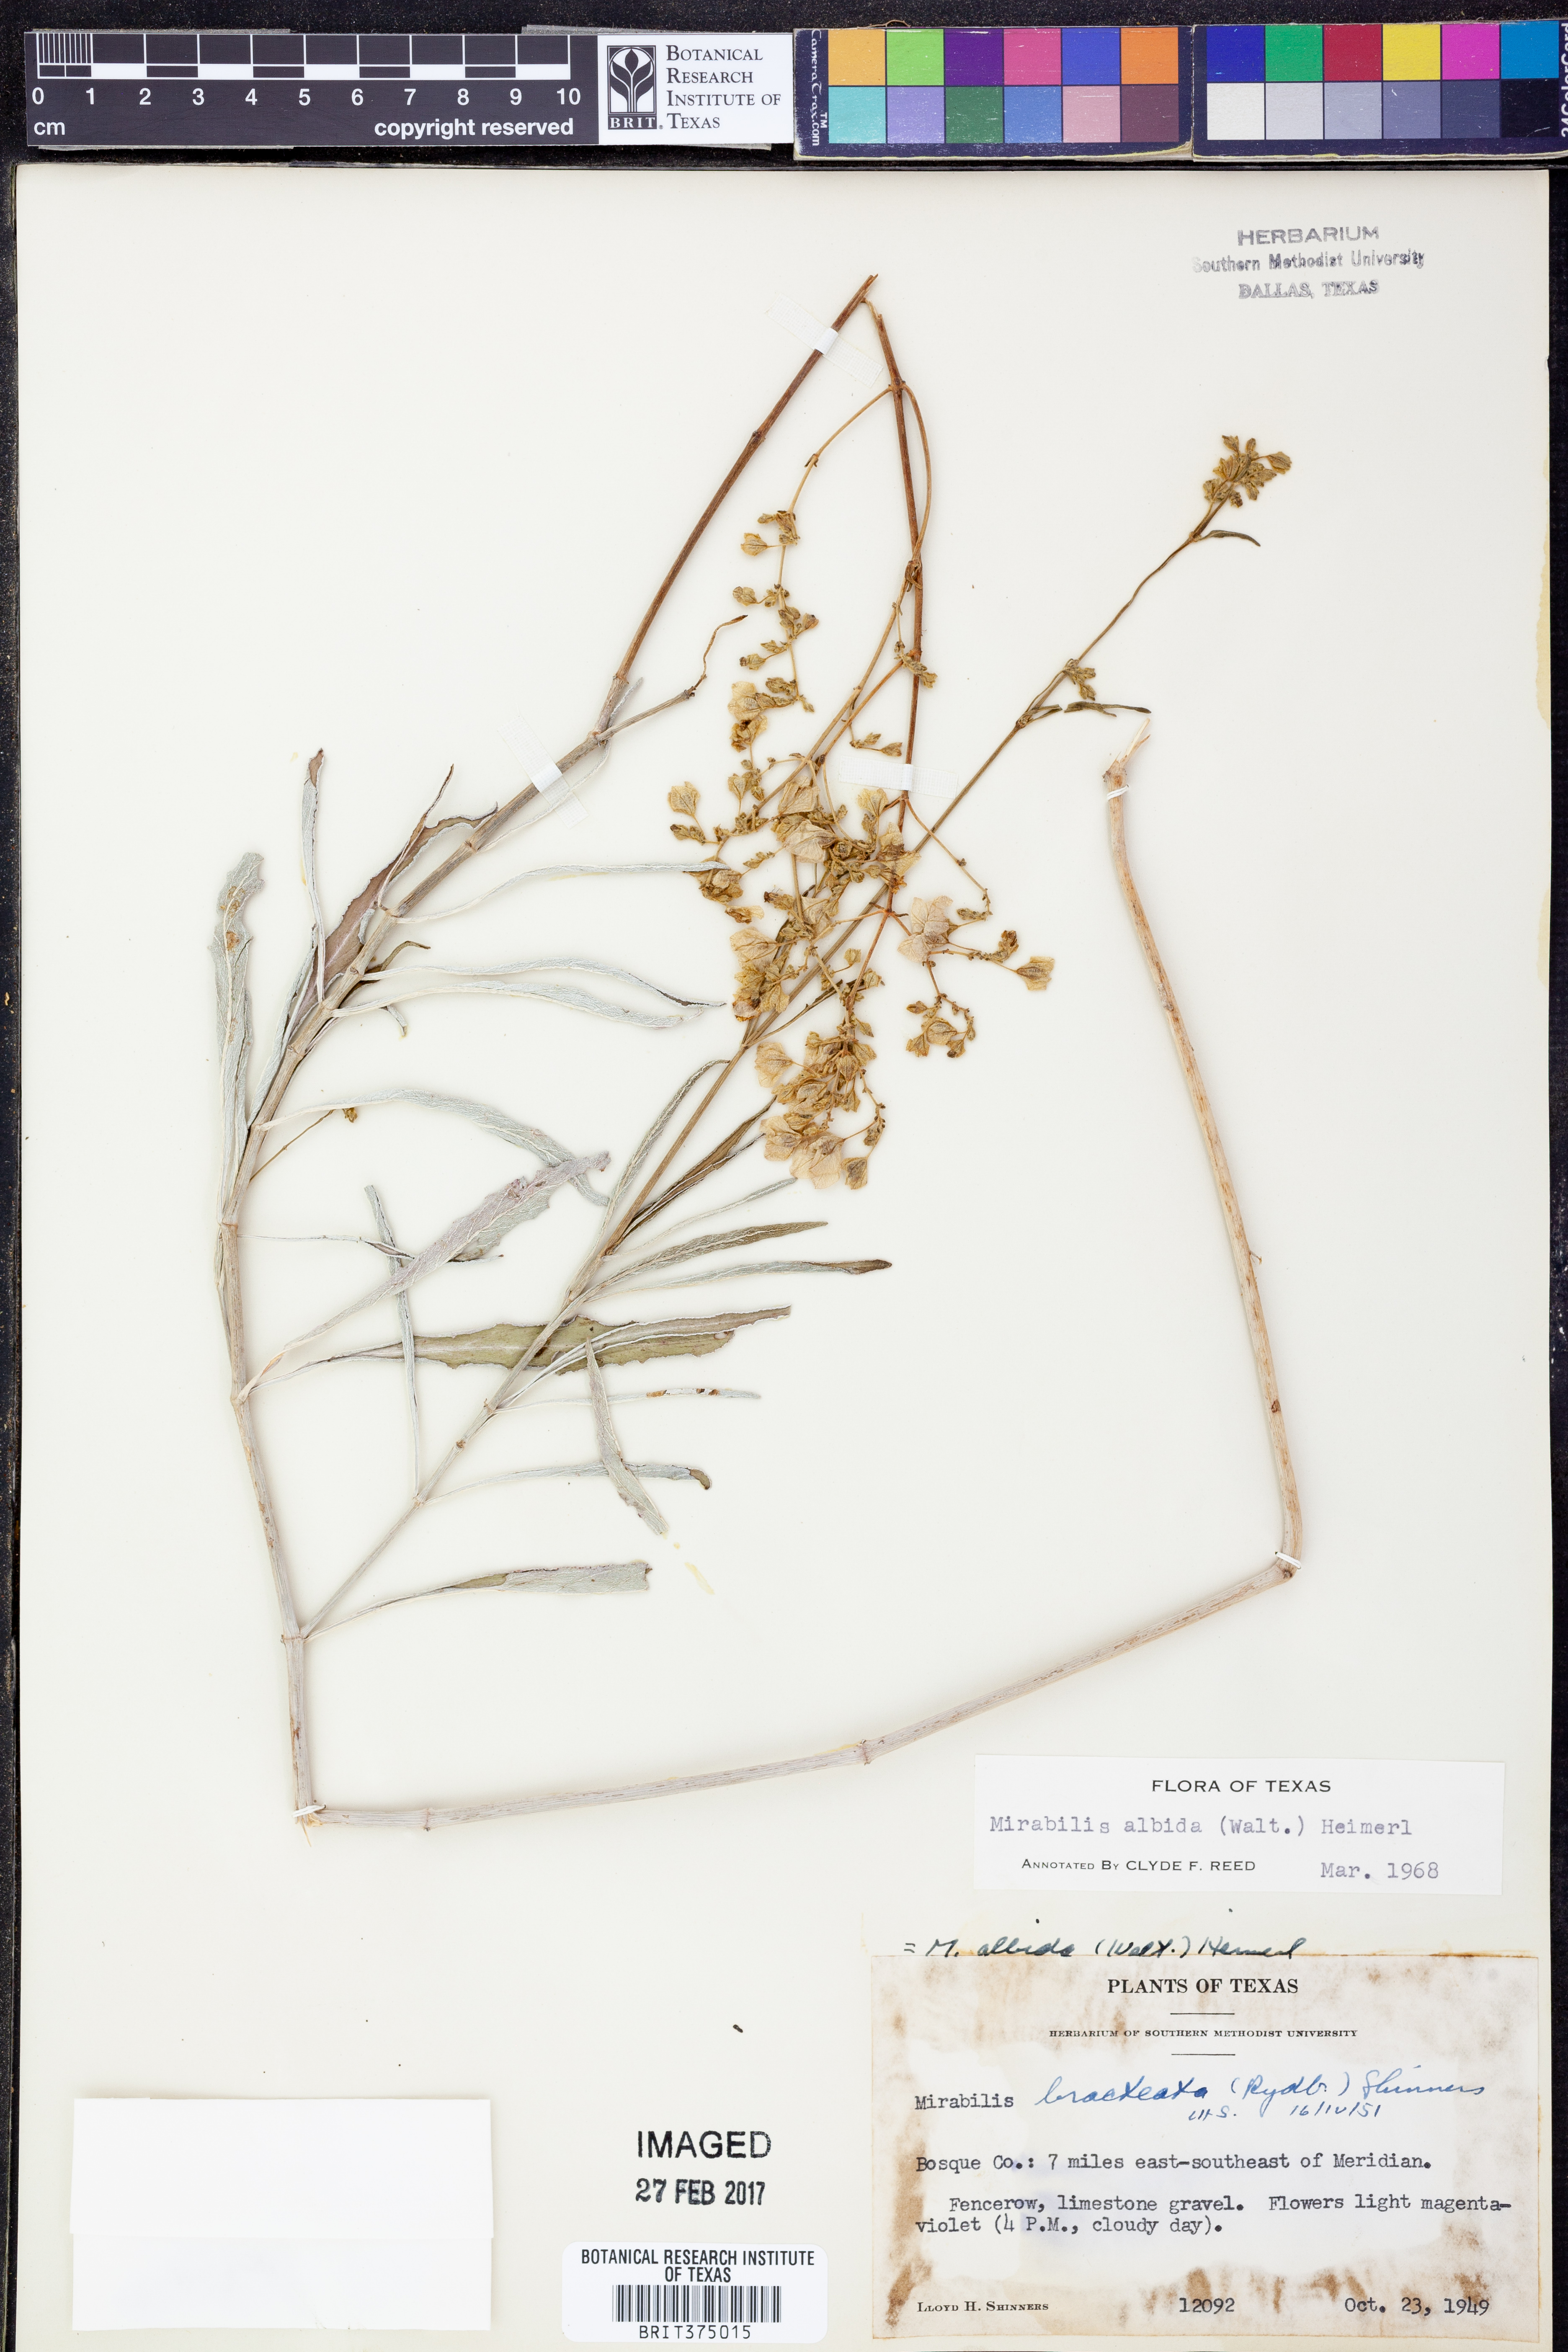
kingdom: Plantae
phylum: Tracheophyta
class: Magnoliopsida
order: Caryophyllales
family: Nyctaginaceae
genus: Mirabilis
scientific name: Mirabilis albida
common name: Hairy four-o'clock
